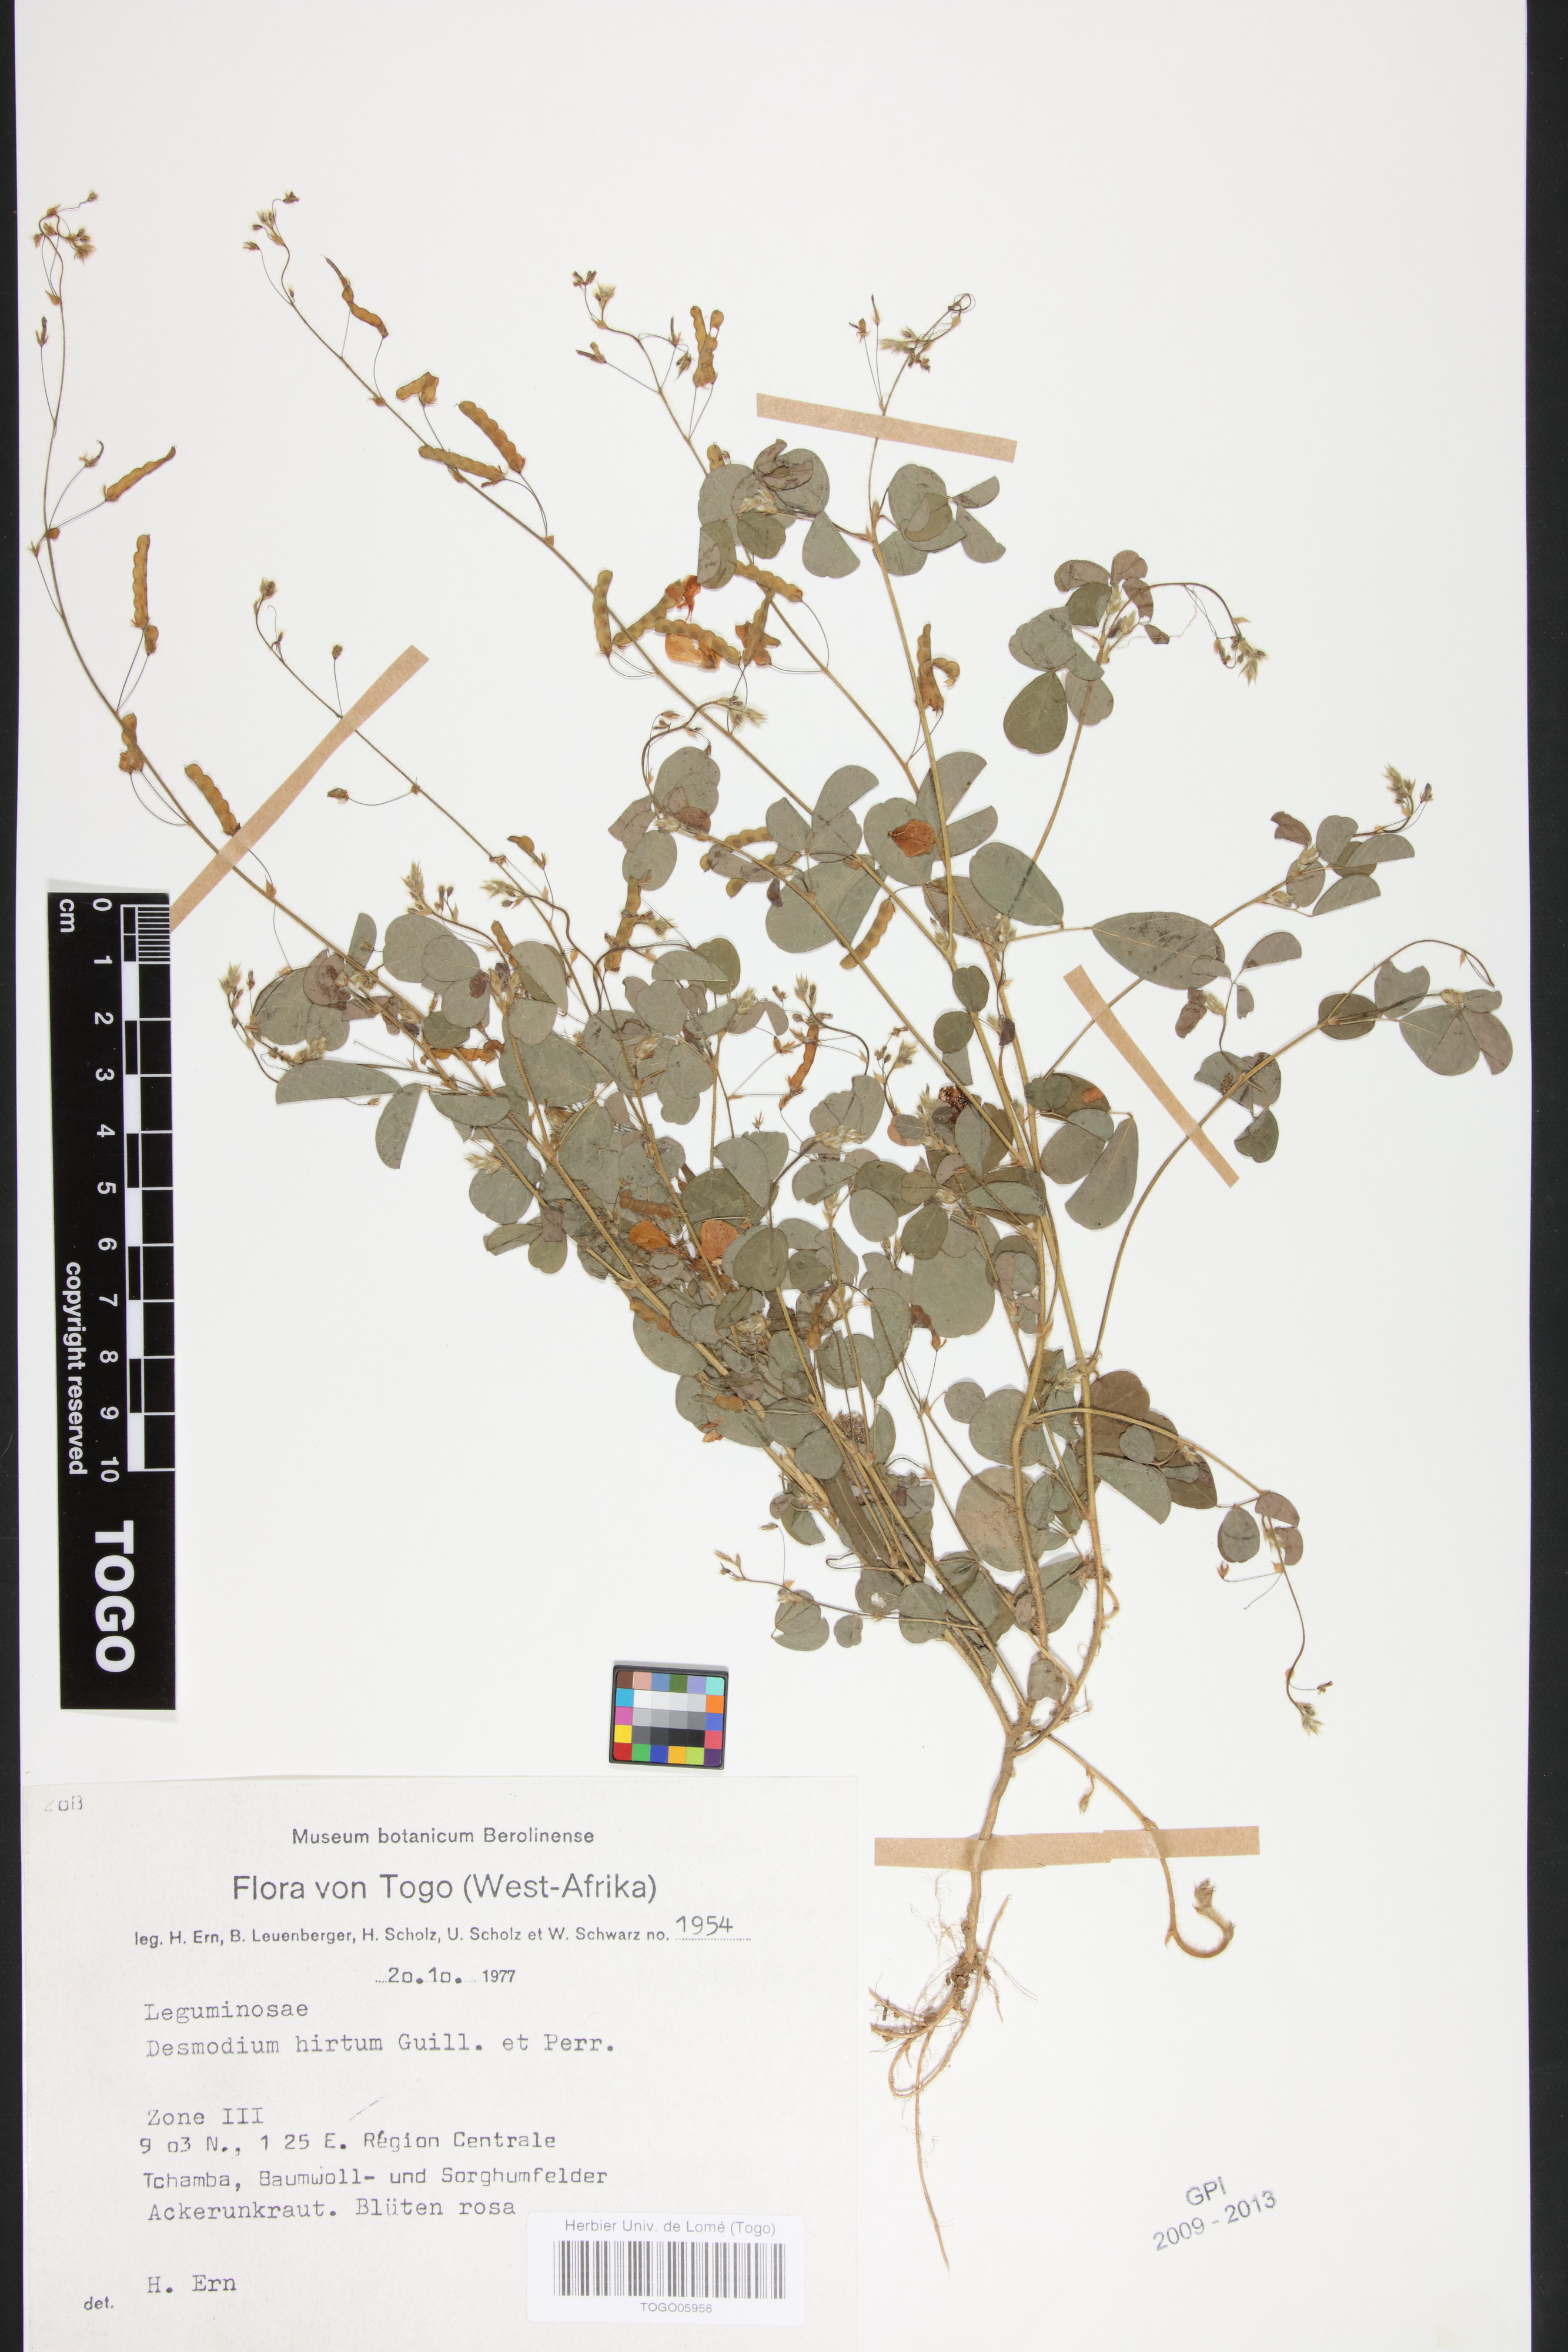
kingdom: Plantae
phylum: Tracheophyta
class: Magnoliopsida
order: Fabales
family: Fabaceae
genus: Grona
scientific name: Grona hirta
